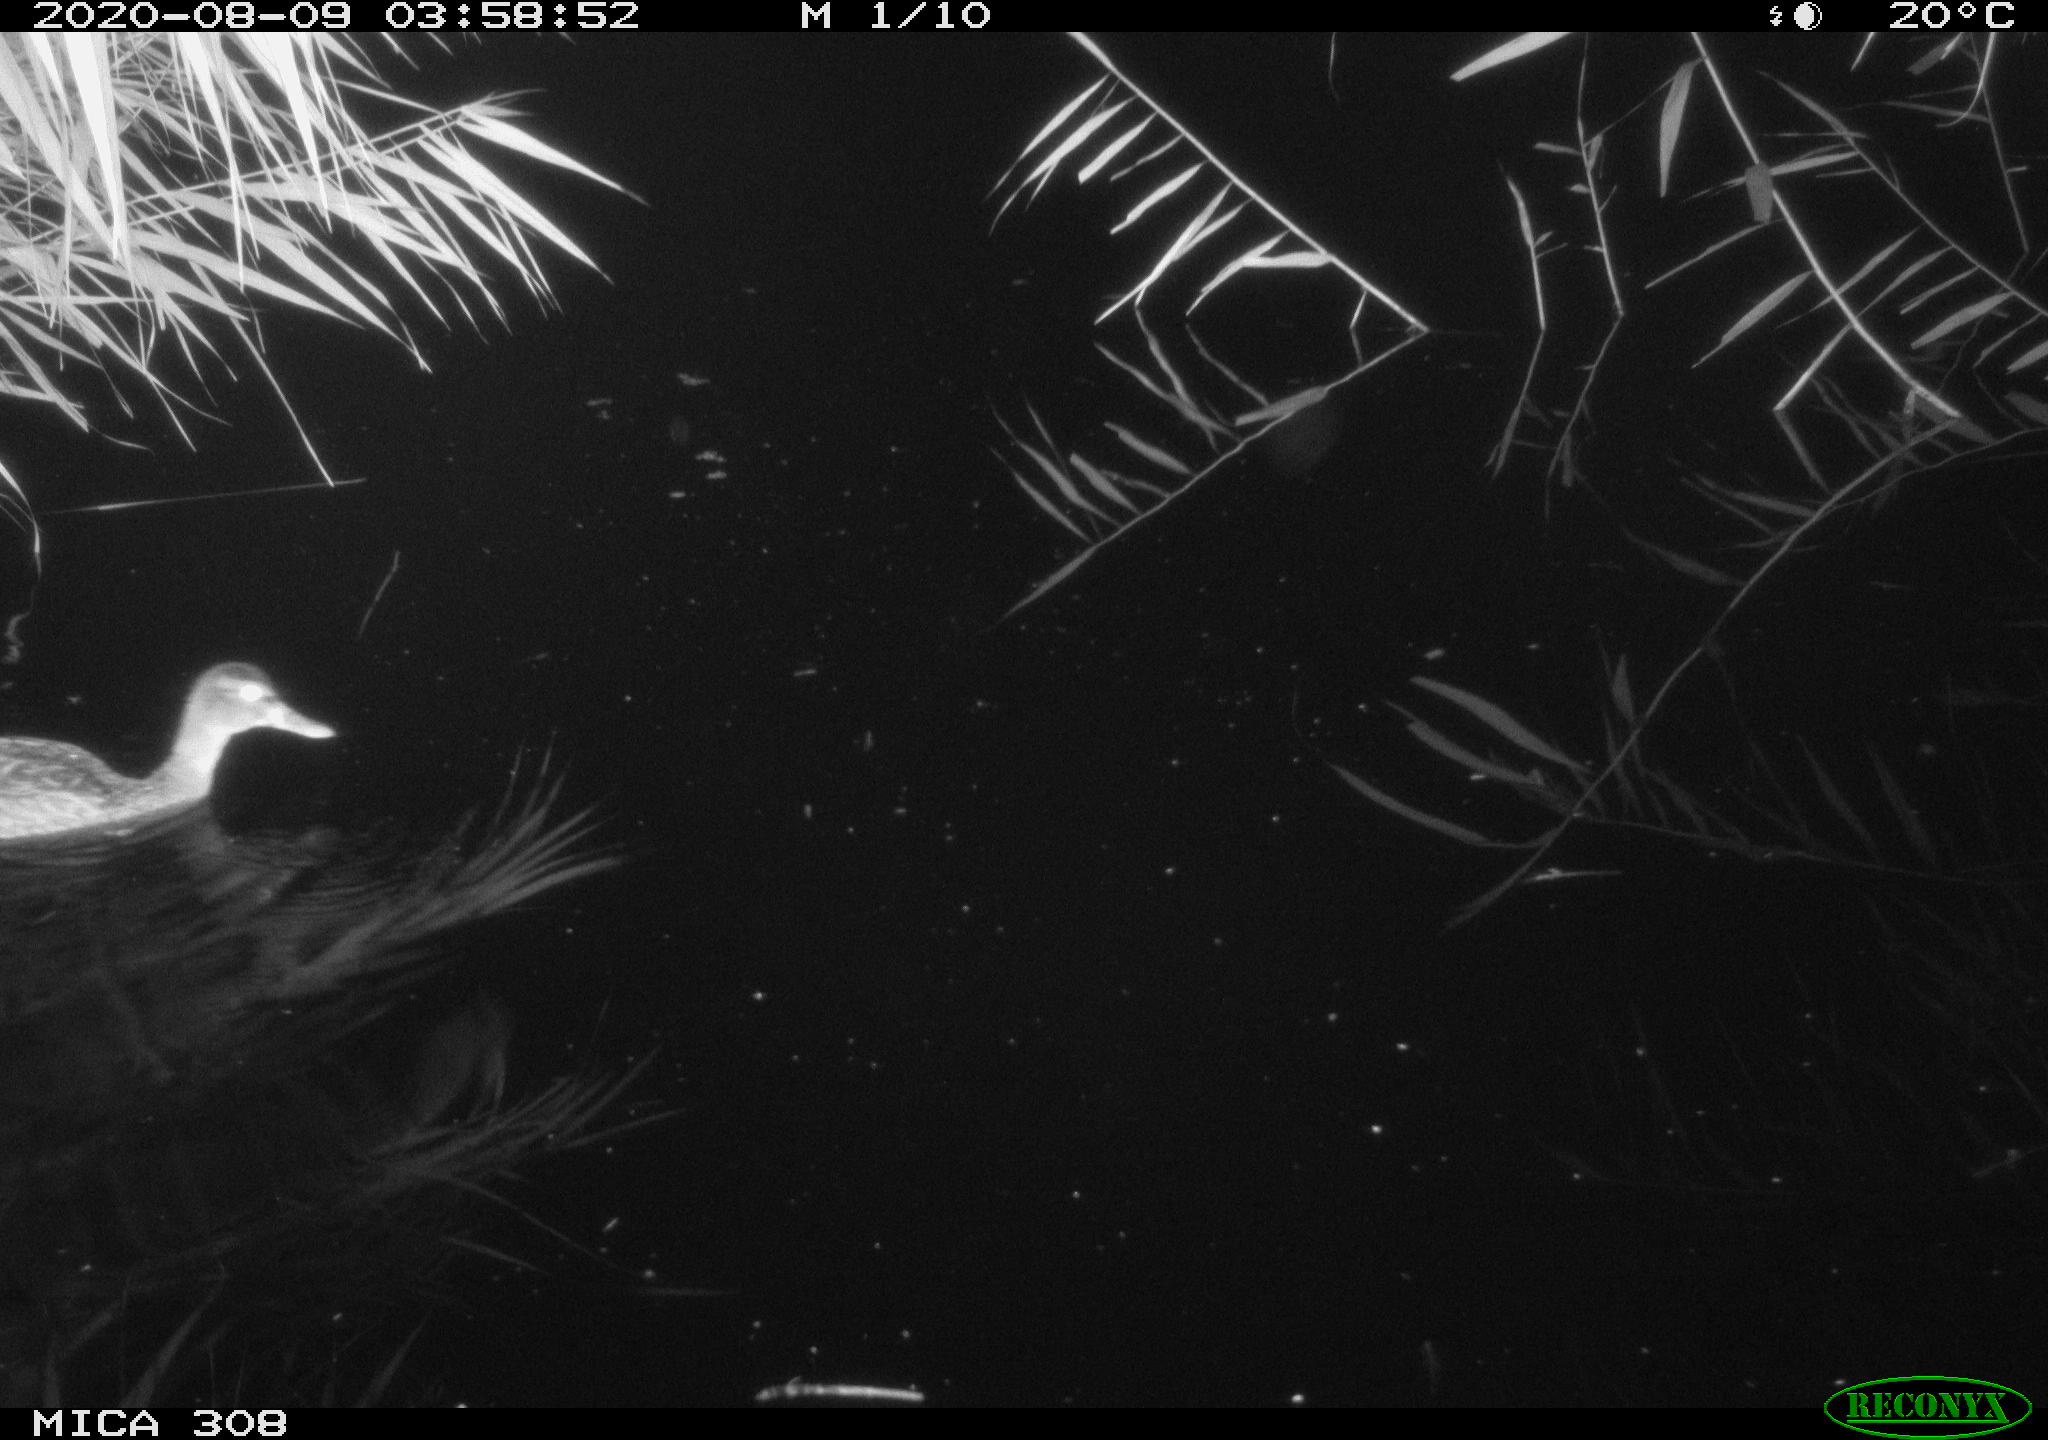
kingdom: Animalia
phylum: Chordata
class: Aves
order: Anseriformes
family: Anatidae
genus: Anas
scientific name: Anas platyrhynchos
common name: Mallard
